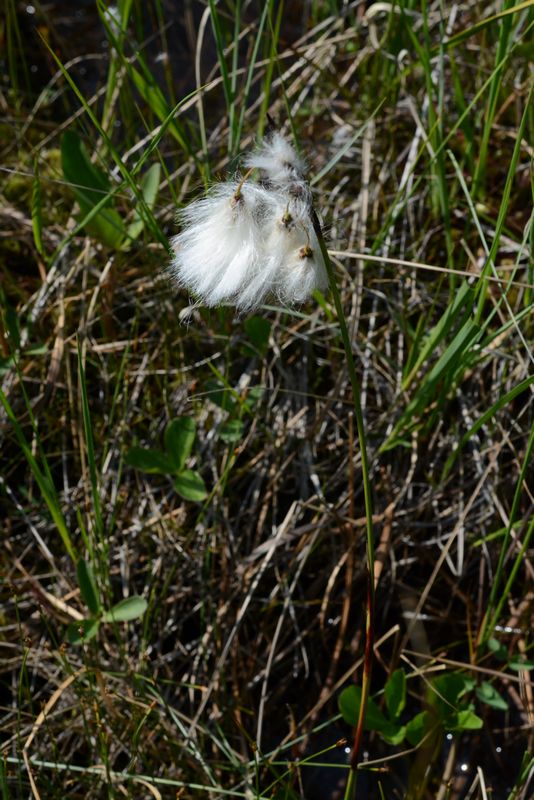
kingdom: Plantae
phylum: Tracheophyta
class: Liliopsida
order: Poales
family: Cyperaceae
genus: Eriophorum
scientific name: Eriophorum angustifolium
